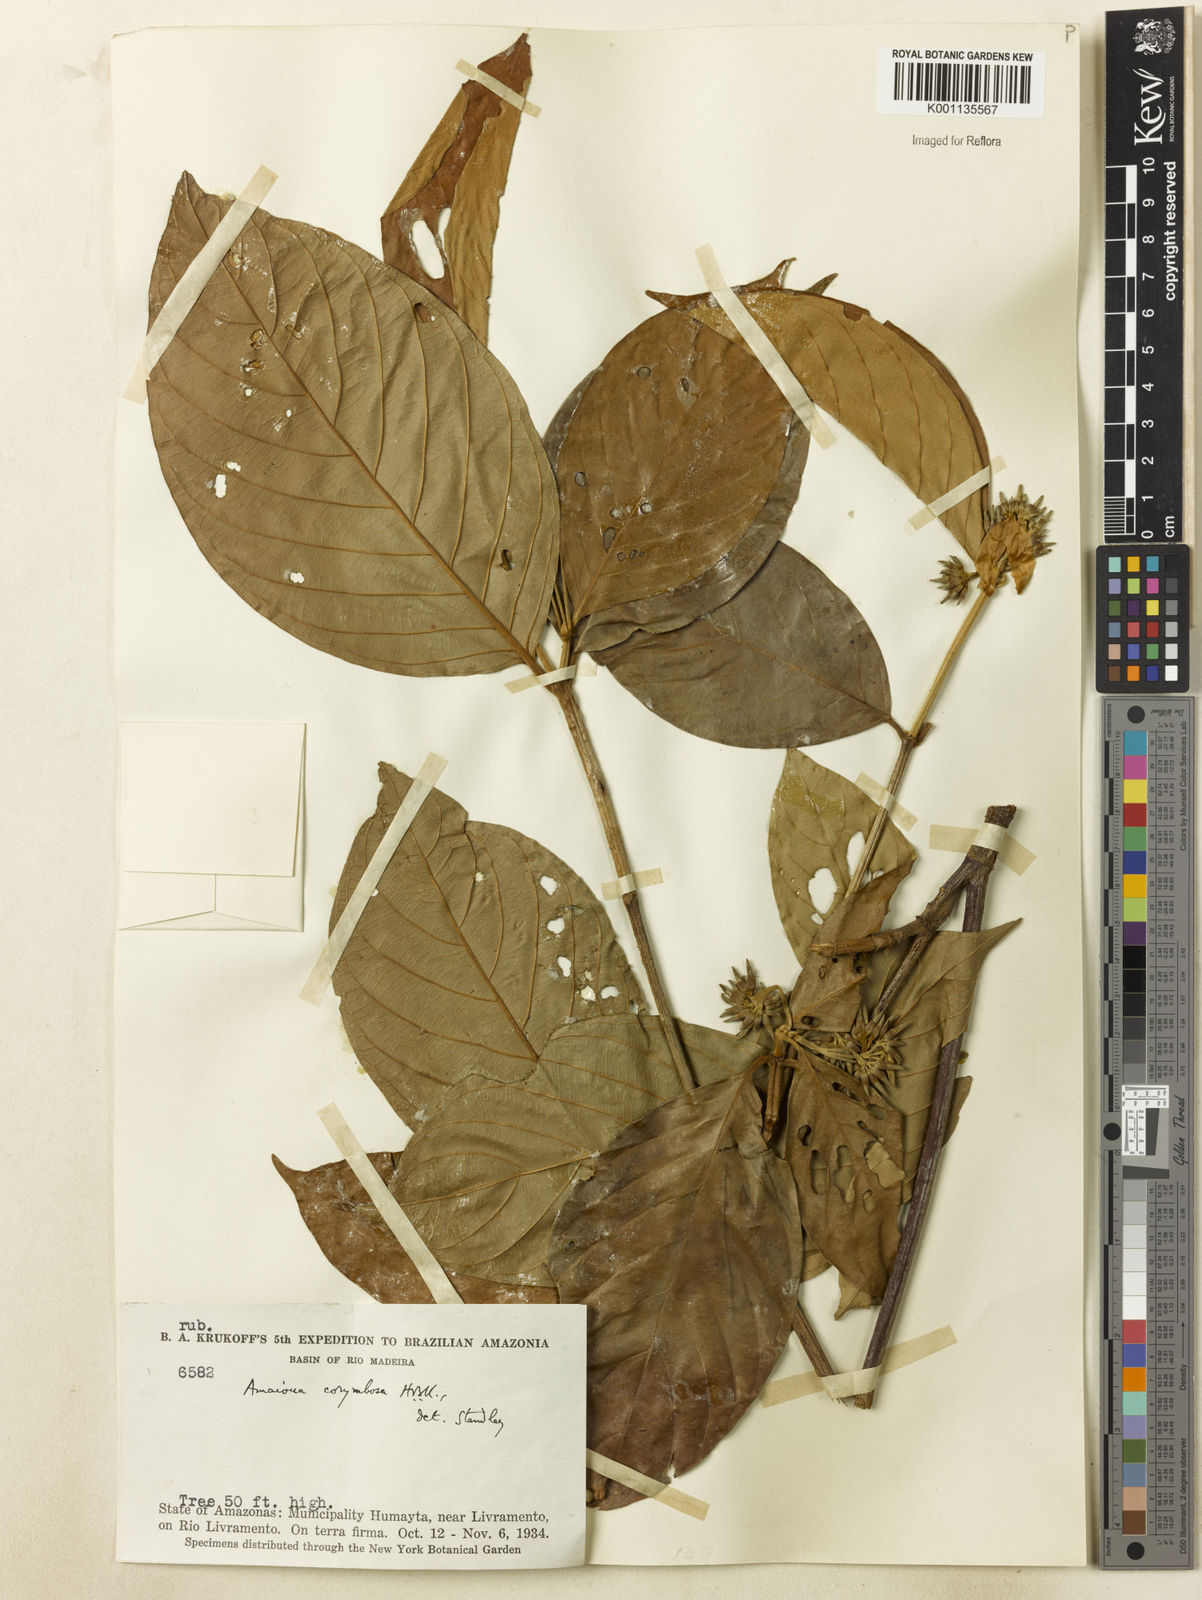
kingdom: Plantae
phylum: Tracheophyta
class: Magnoliopsida
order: Gentianales
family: Rubiaceae
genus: Amaioua
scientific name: Amaioua glomerulata
